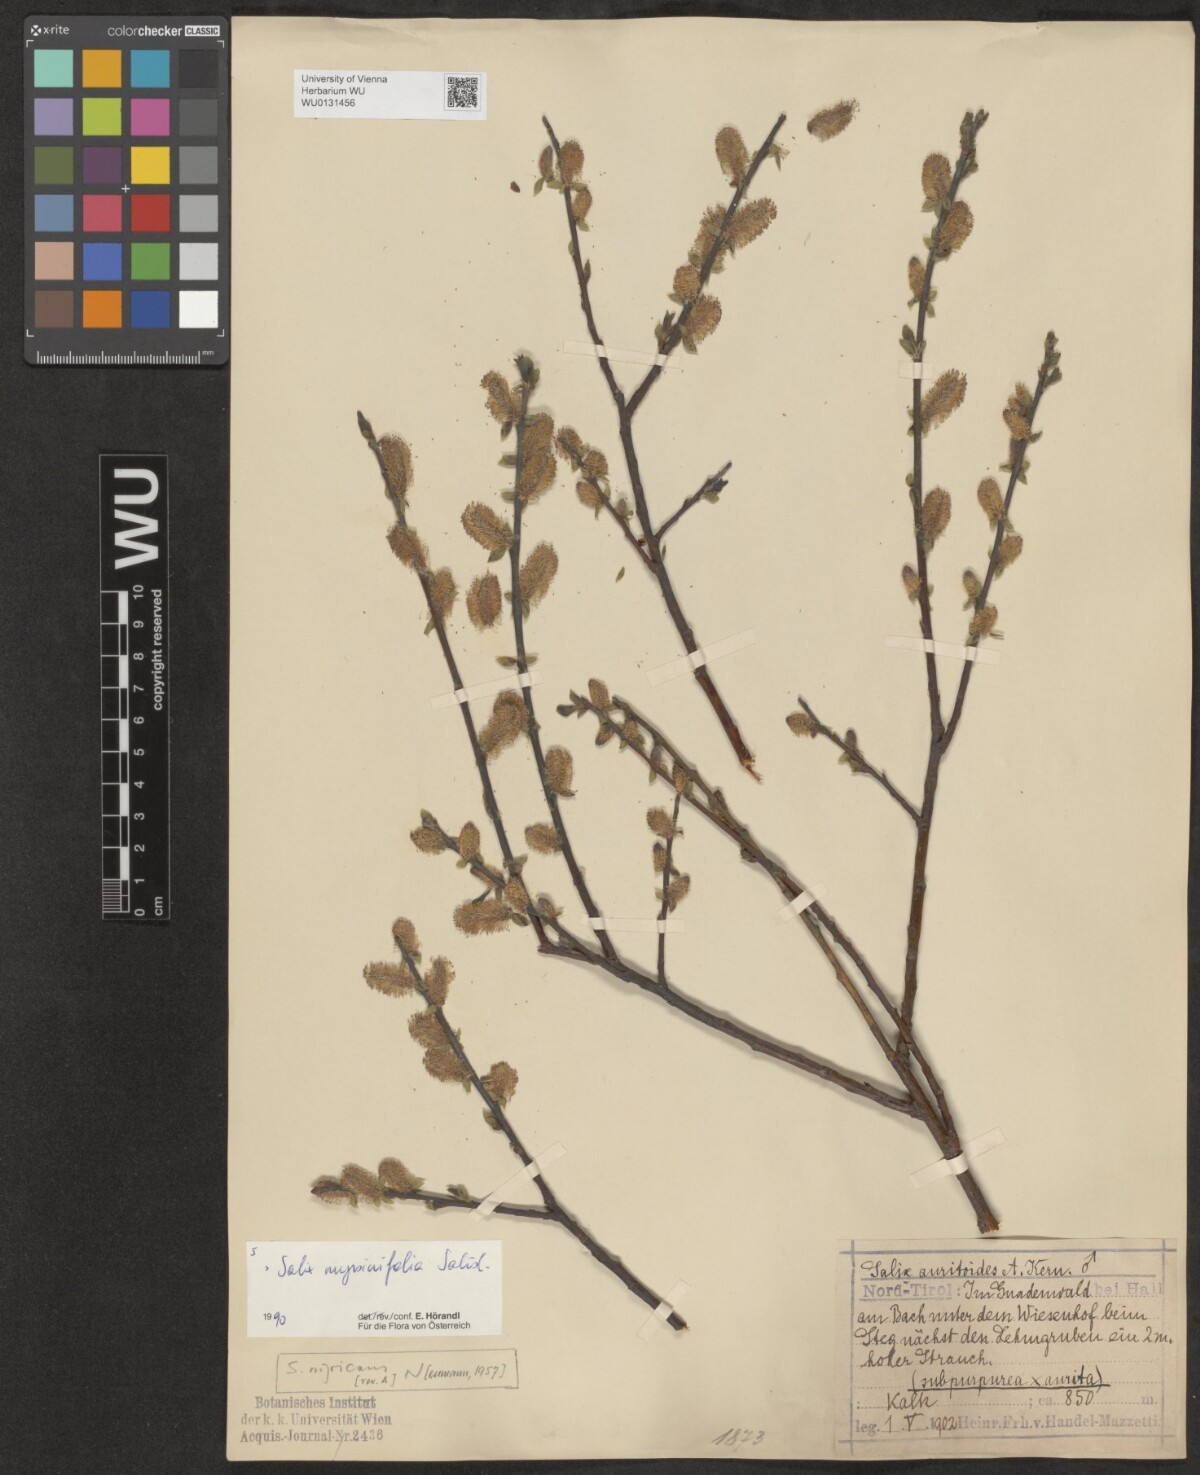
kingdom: Plantae
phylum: Tracheophyta
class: Magnoliopsida
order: Malpighiales
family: Salicaceae
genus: Salix
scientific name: Salix myrsinifolia
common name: Dark-leaved willow
